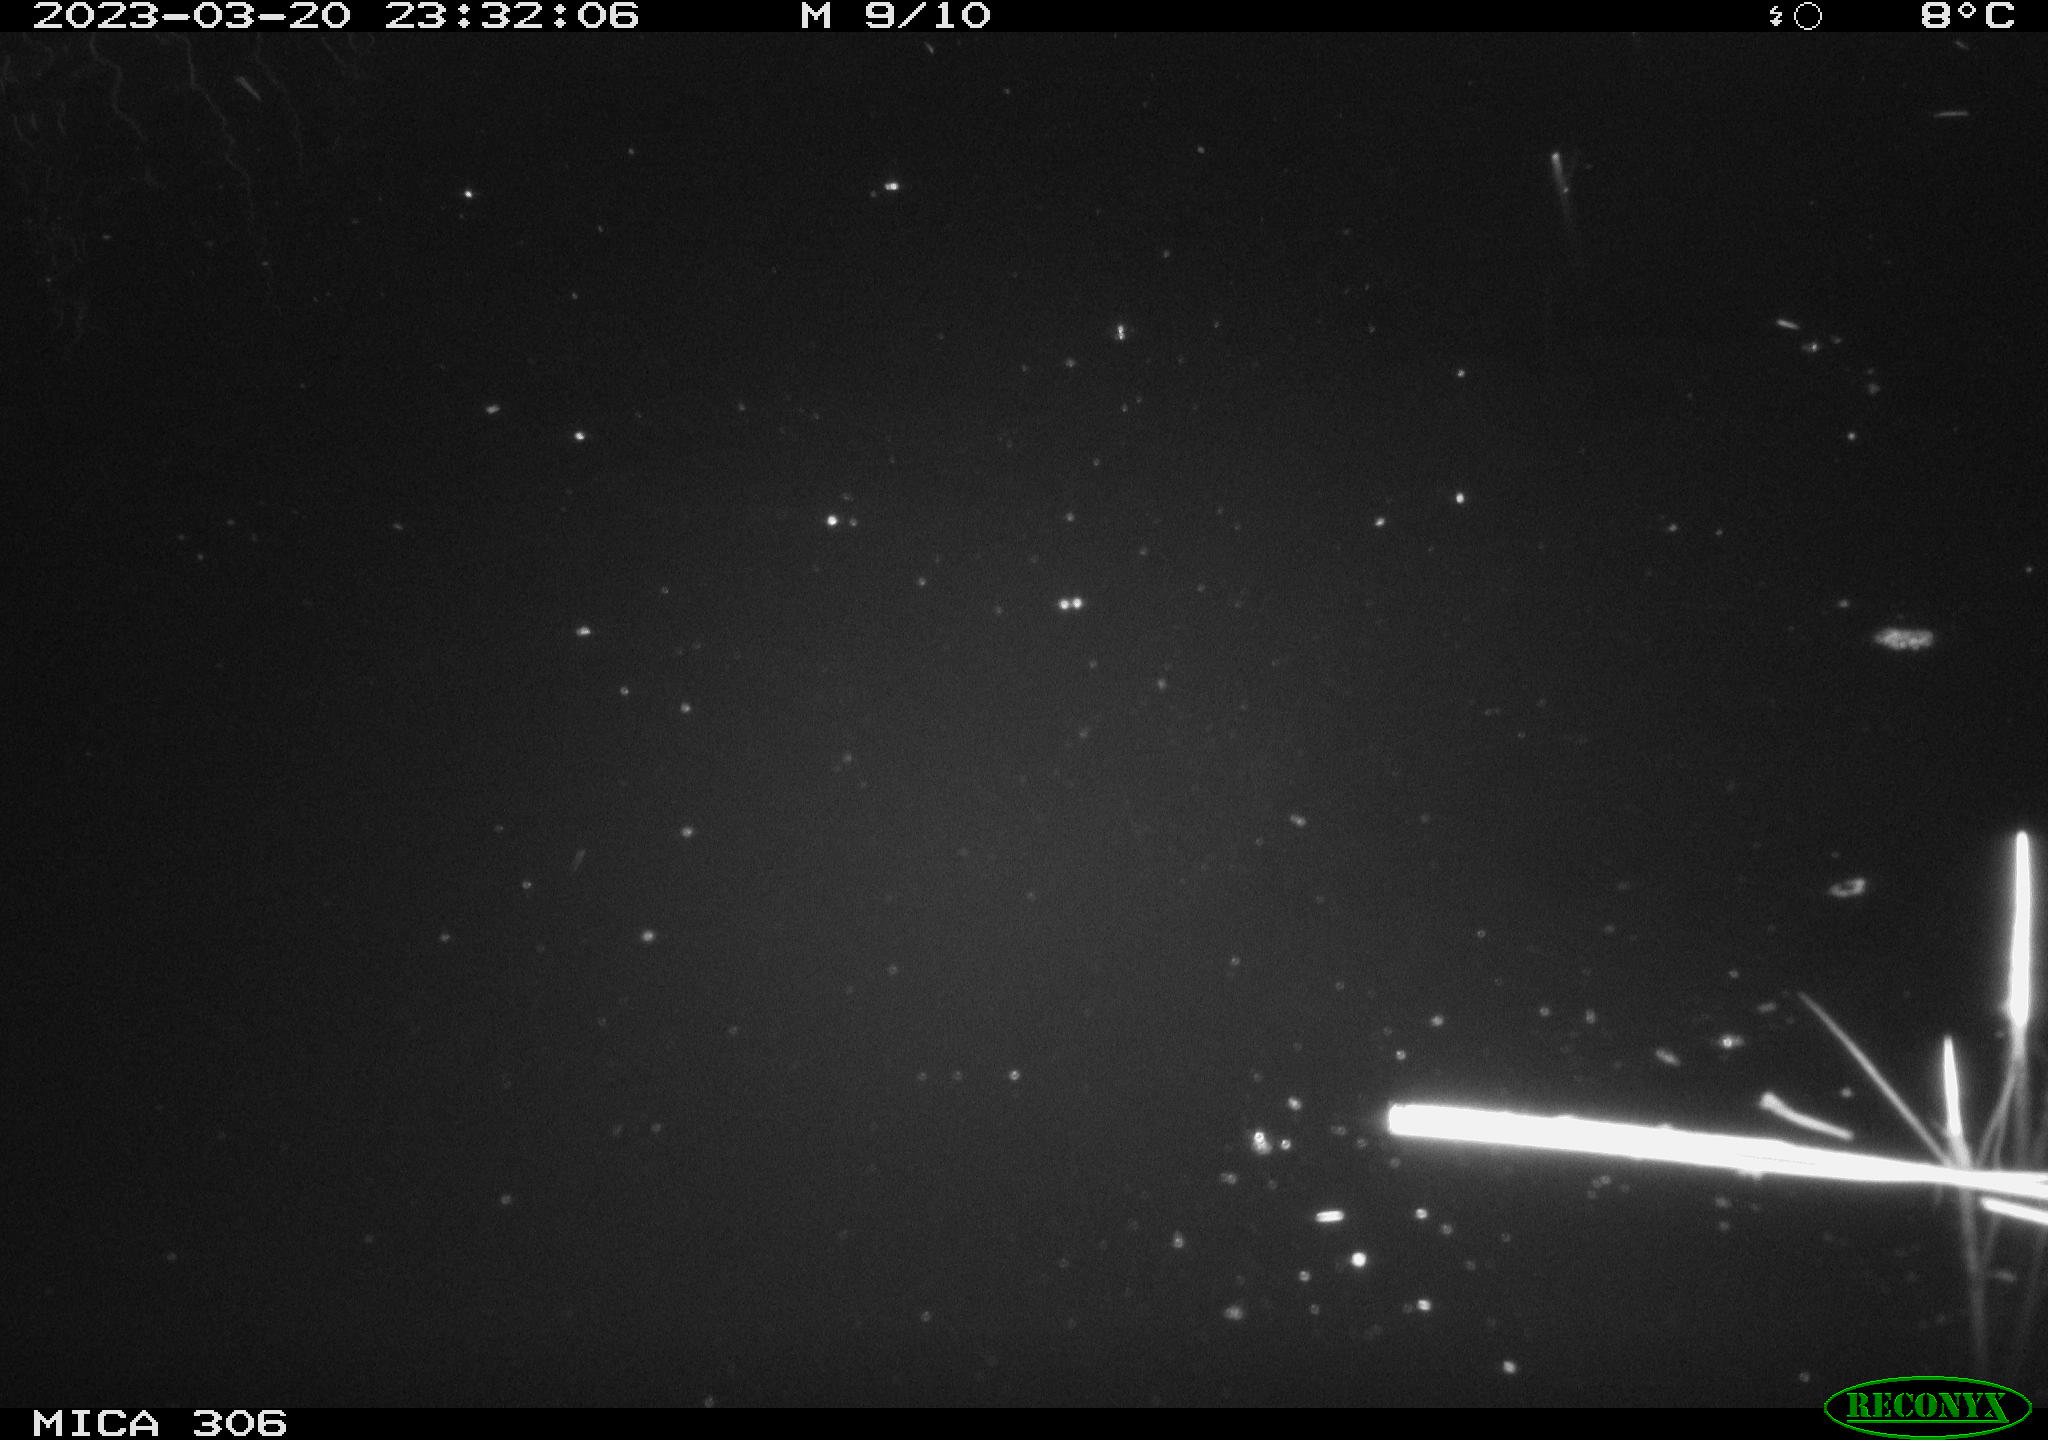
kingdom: Animalia
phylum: Chordata
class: Mammalia
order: Rodentia
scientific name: Rodentia
